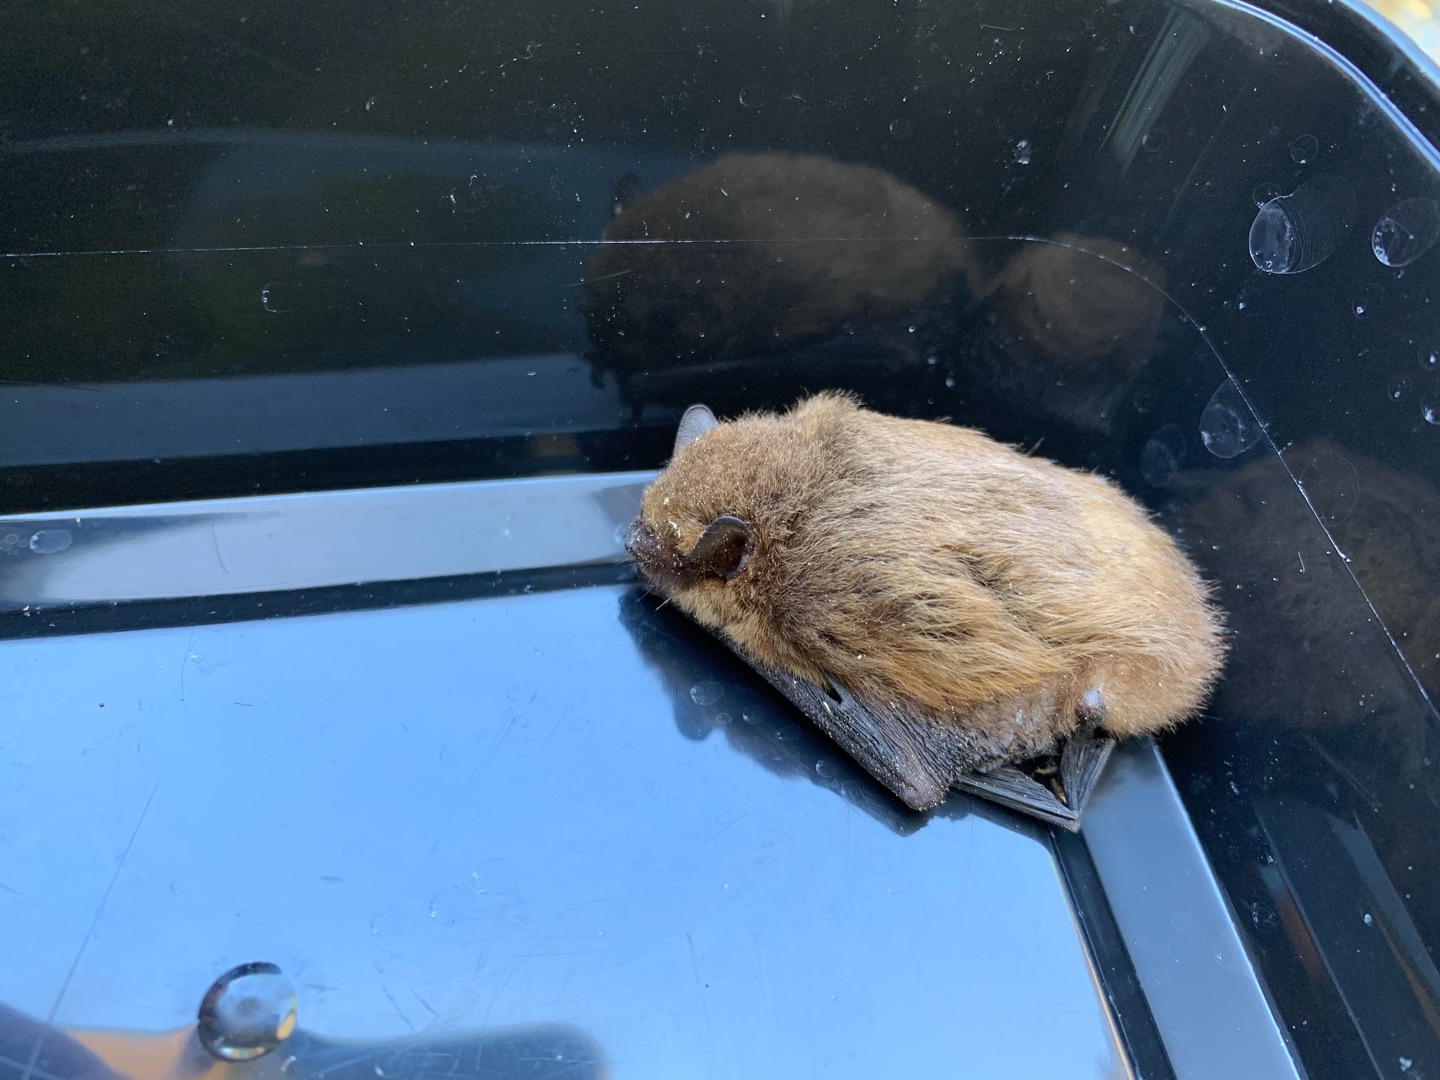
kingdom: Animalia
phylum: Chordata
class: Mammalia
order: Chiroptera
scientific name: Chiroptera
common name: Flagermus
